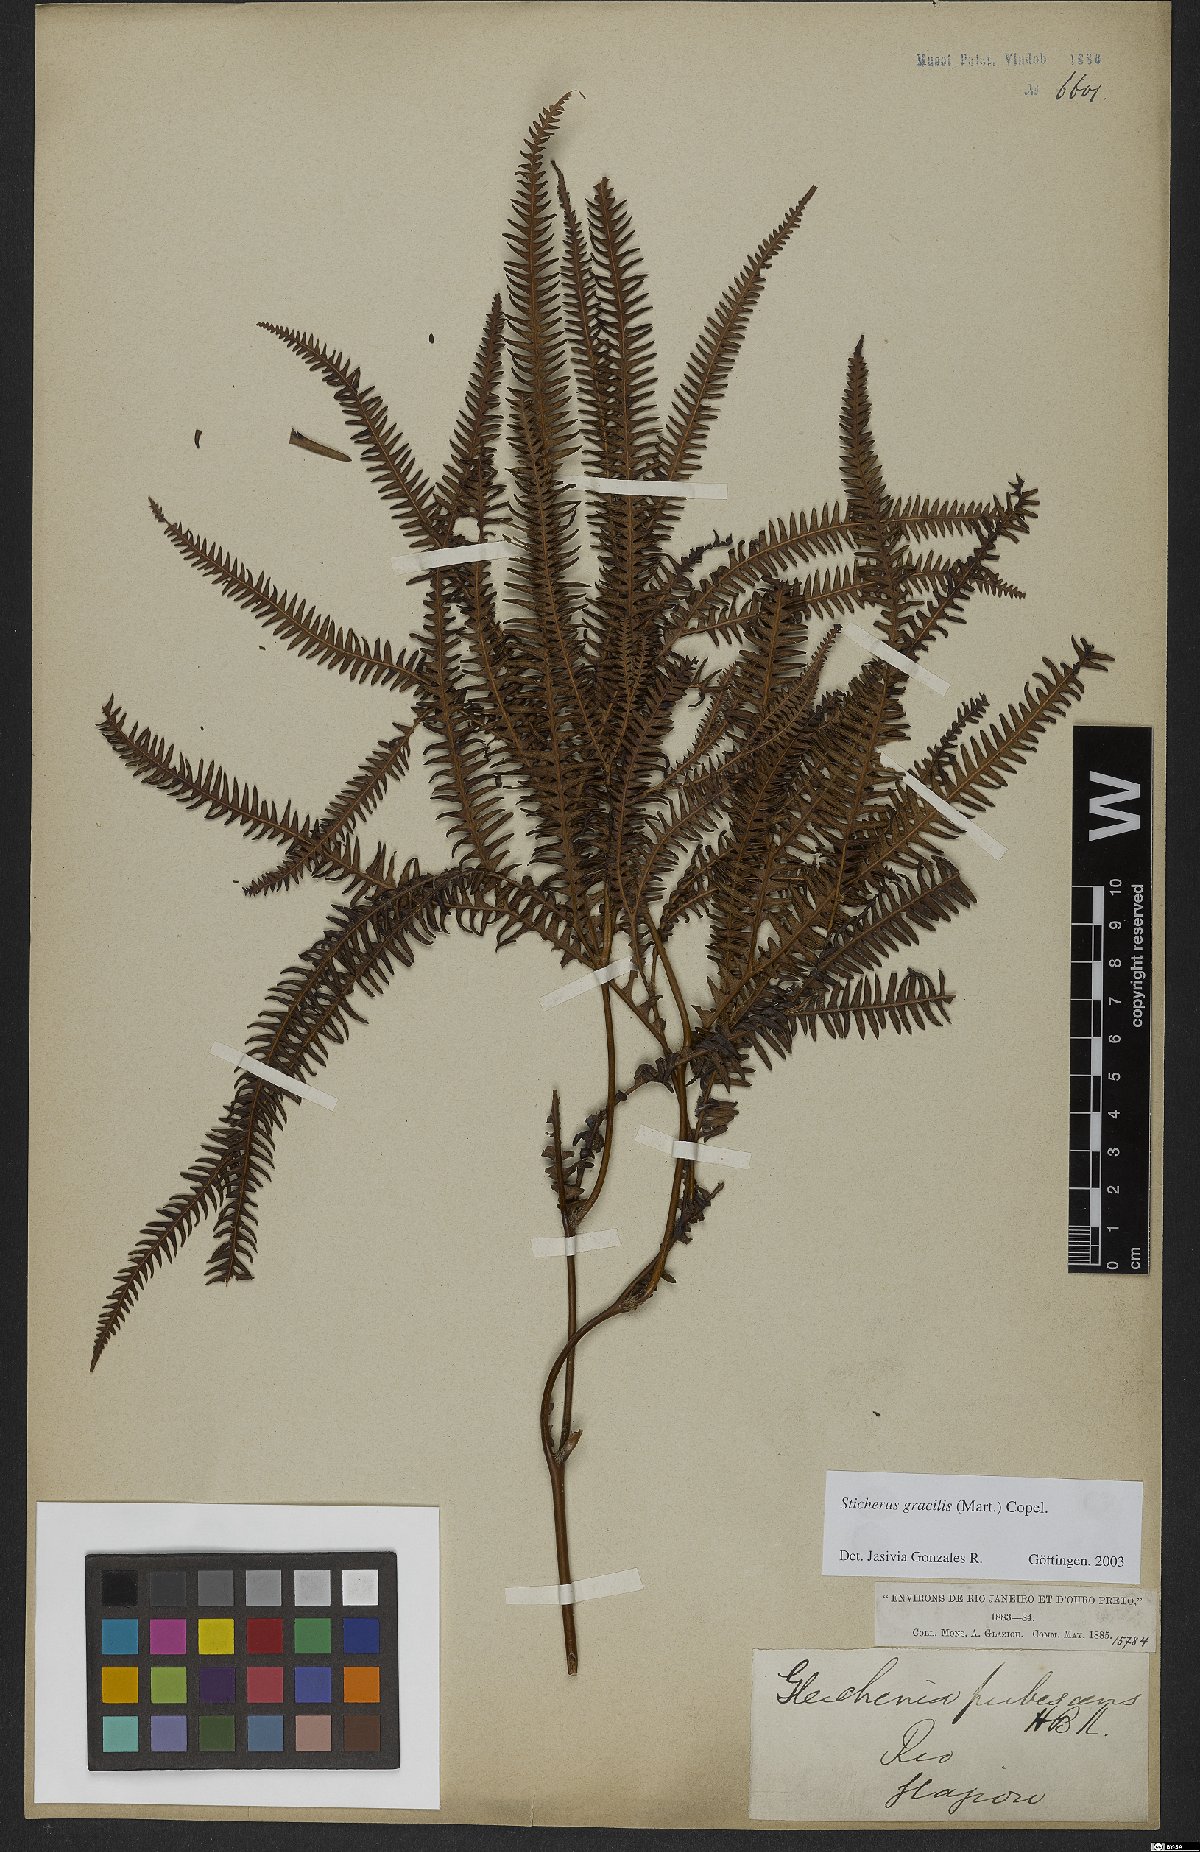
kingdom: Plantae
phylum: Tracheophyta
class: Polypodiopsida
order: Gleicheniales
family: Gleicheniaceae
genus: Sticherus
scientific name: Sticherus gracilis
